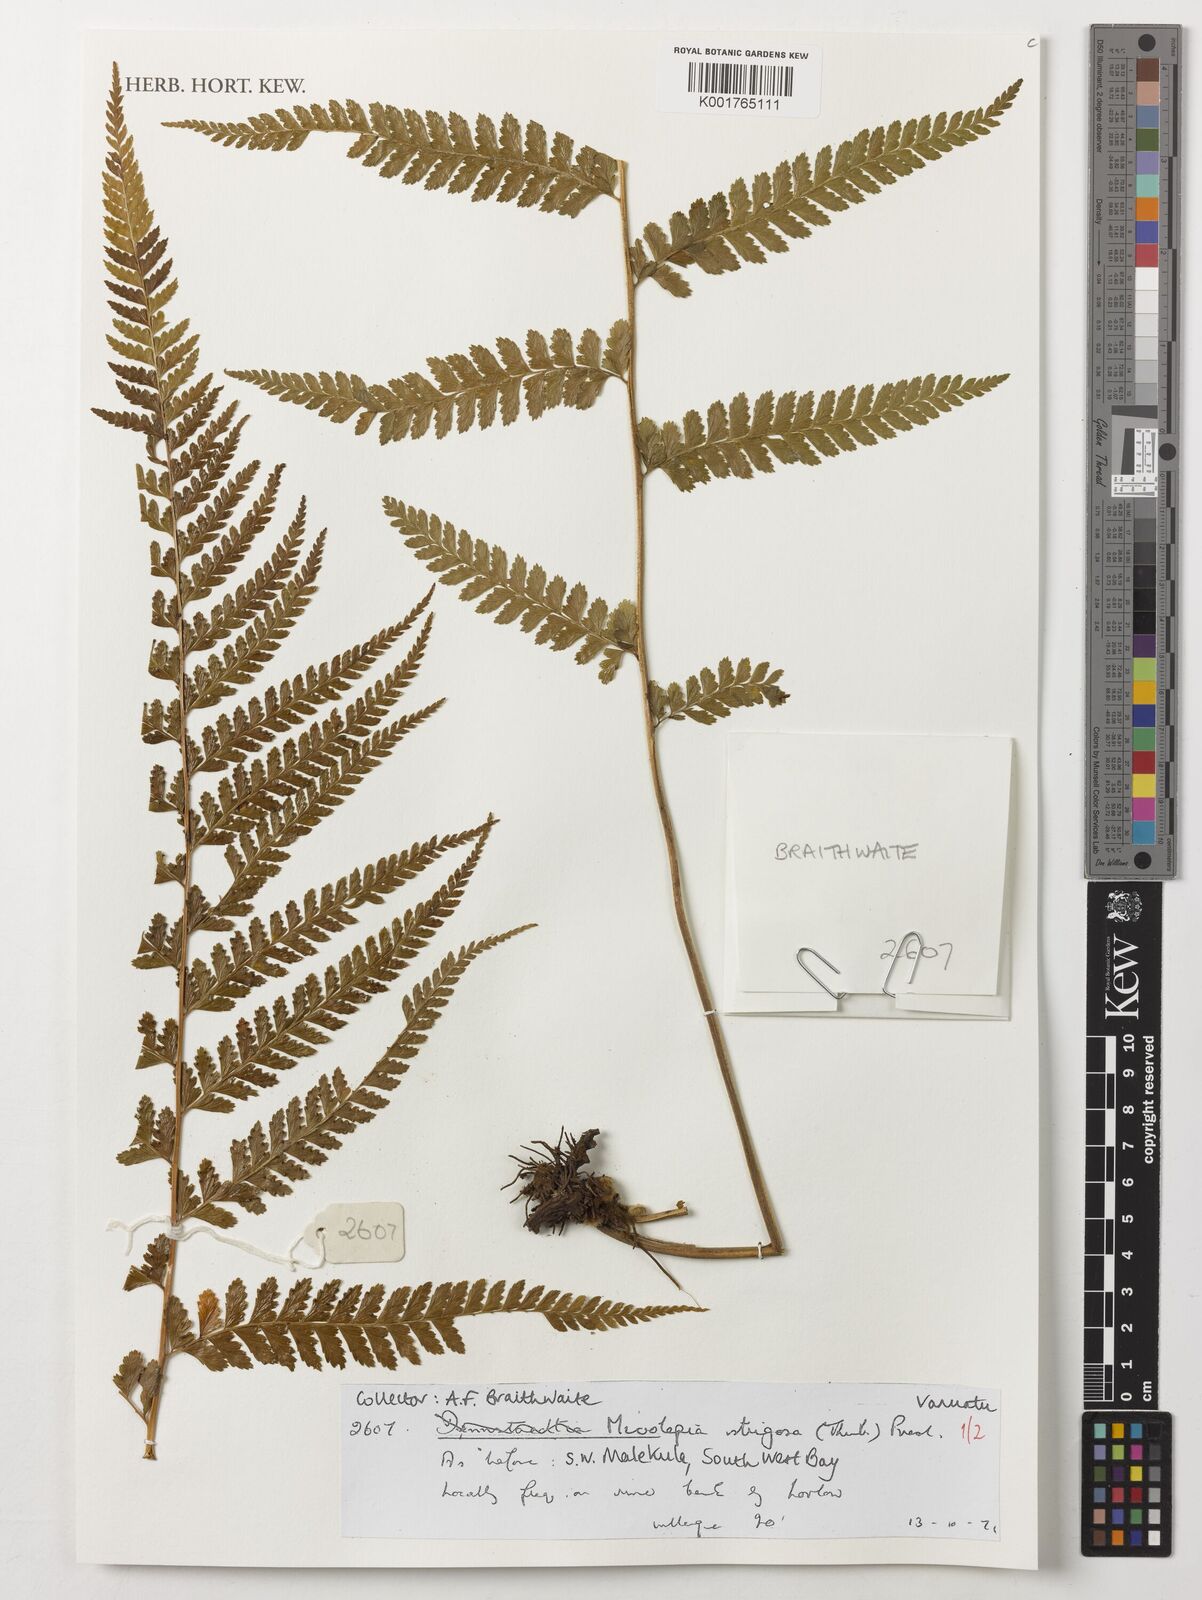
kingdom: Plantae
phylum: Tracheophyta
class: Polypodiopsida
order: Polypodiales
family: Dennstaedtiaceae
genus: Microlepia
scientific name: Microlepia strigosa
